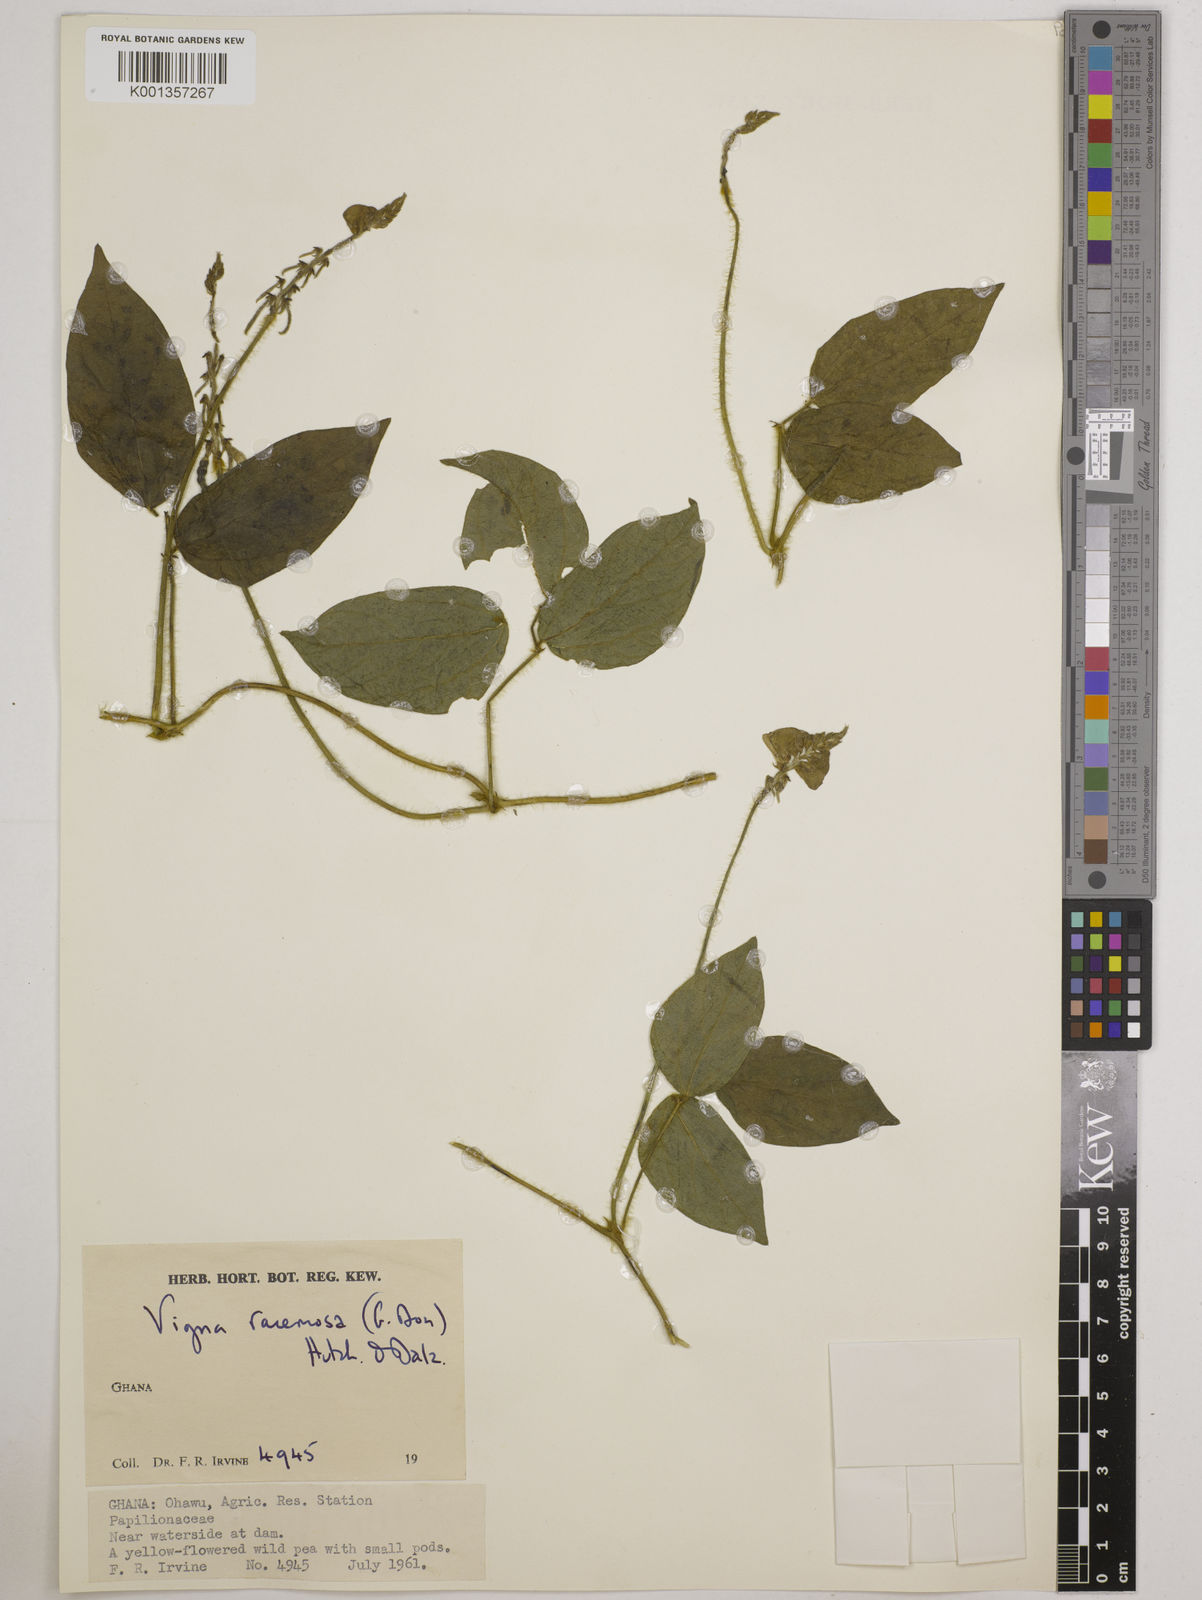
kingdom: Plantae
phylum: Tracheophyta
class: Magnoliopsida
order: Fabales
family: Fabaceae
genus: Vigna
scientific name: Vigna racemosa
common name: Beans not eaten
